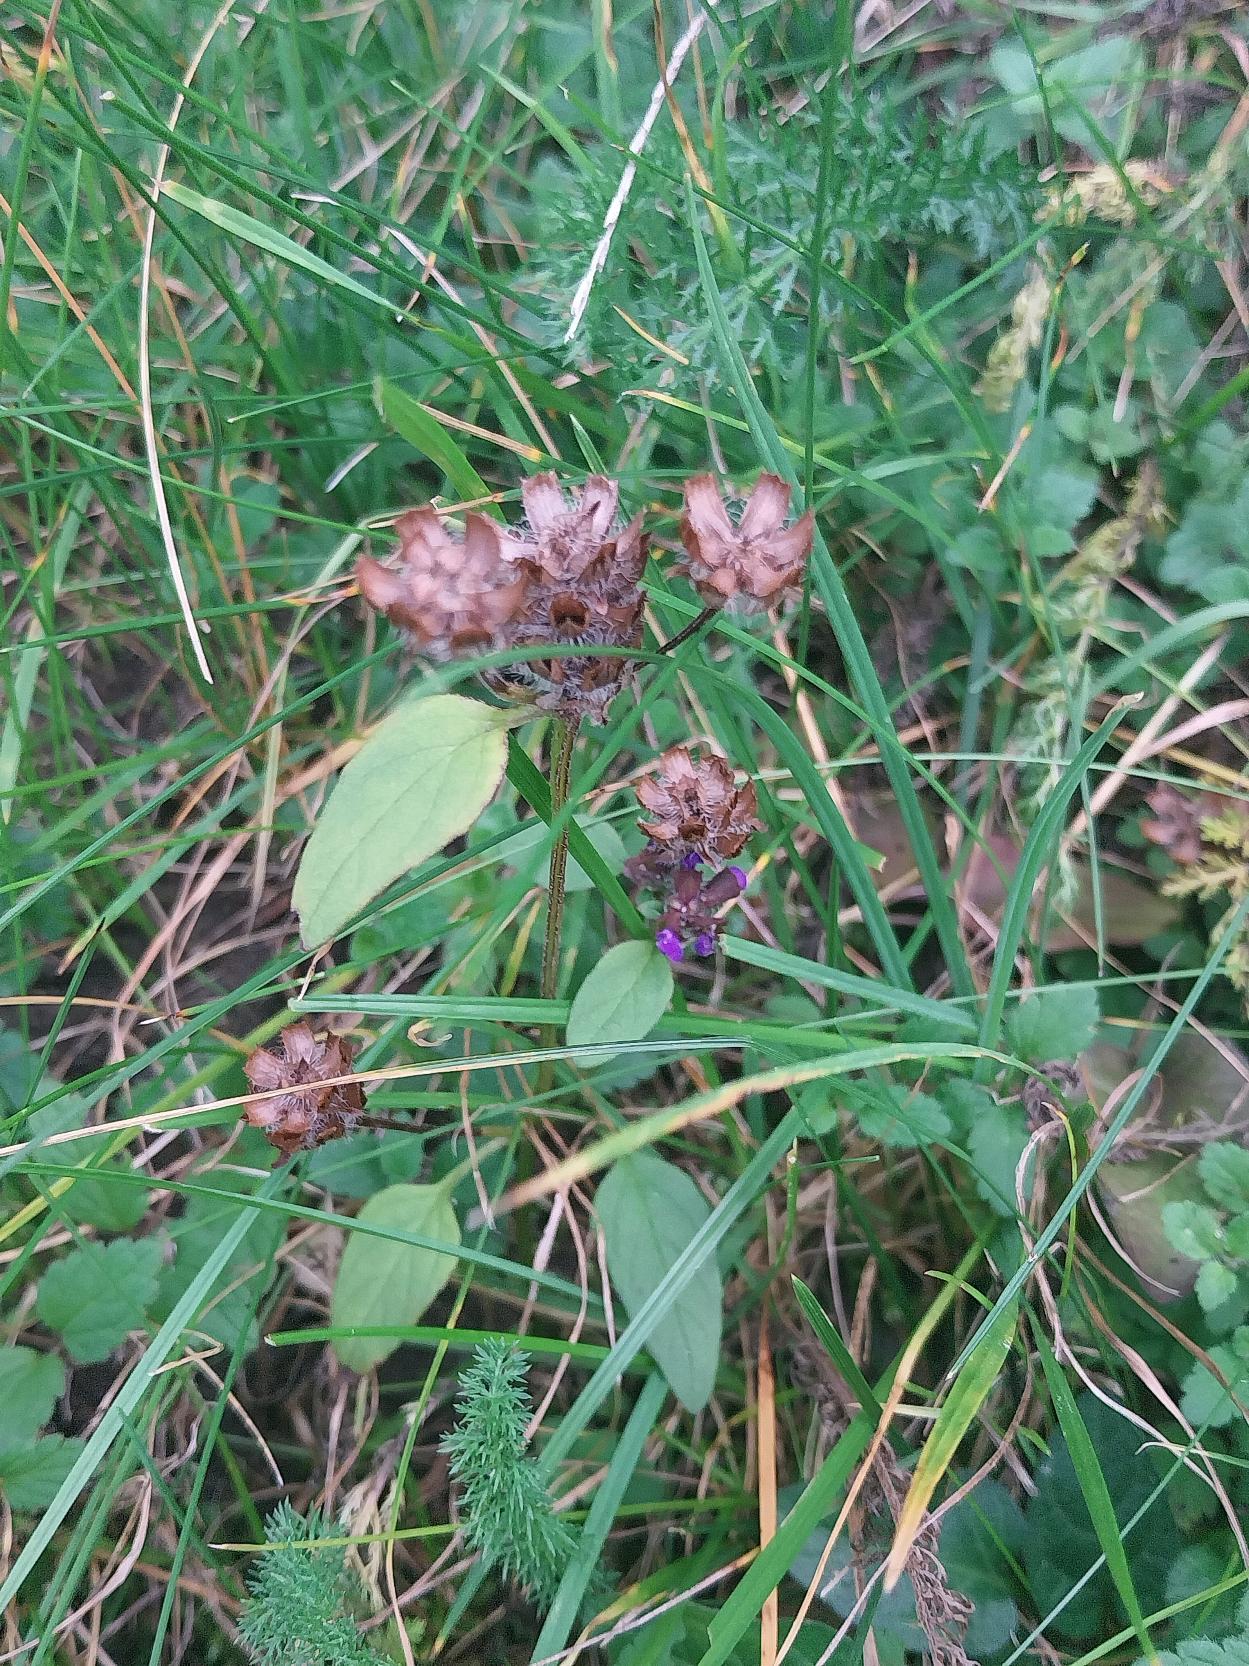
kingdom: Plantae
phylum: Tracheophyta
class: Magnoliopsida
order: Lamiales
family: Lamiaceae
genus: Prunella
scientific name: Prunella vulgaris
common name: Almindelig brunelle
